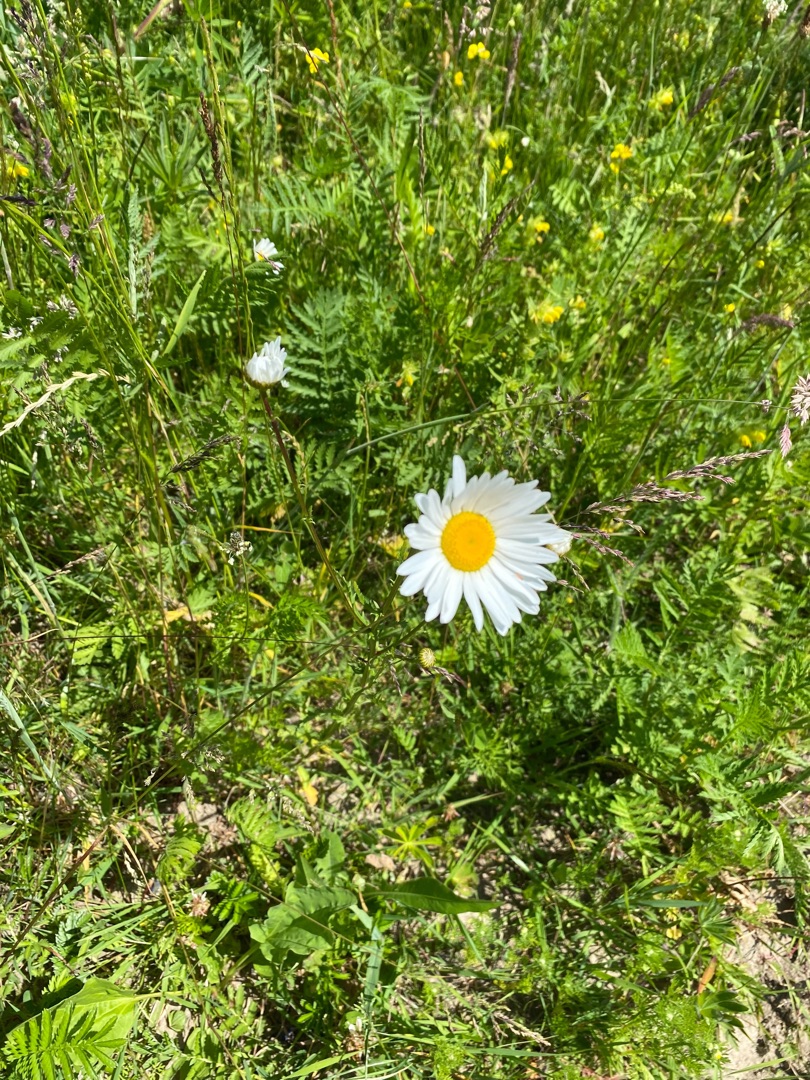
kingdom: Plantae
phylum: Tracheophyta
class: Magnoliopsida
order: Asterales
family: Asteraceae
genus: Leucanthemum
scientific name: Leucanthemum vulgare
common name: Hvid okseøje
